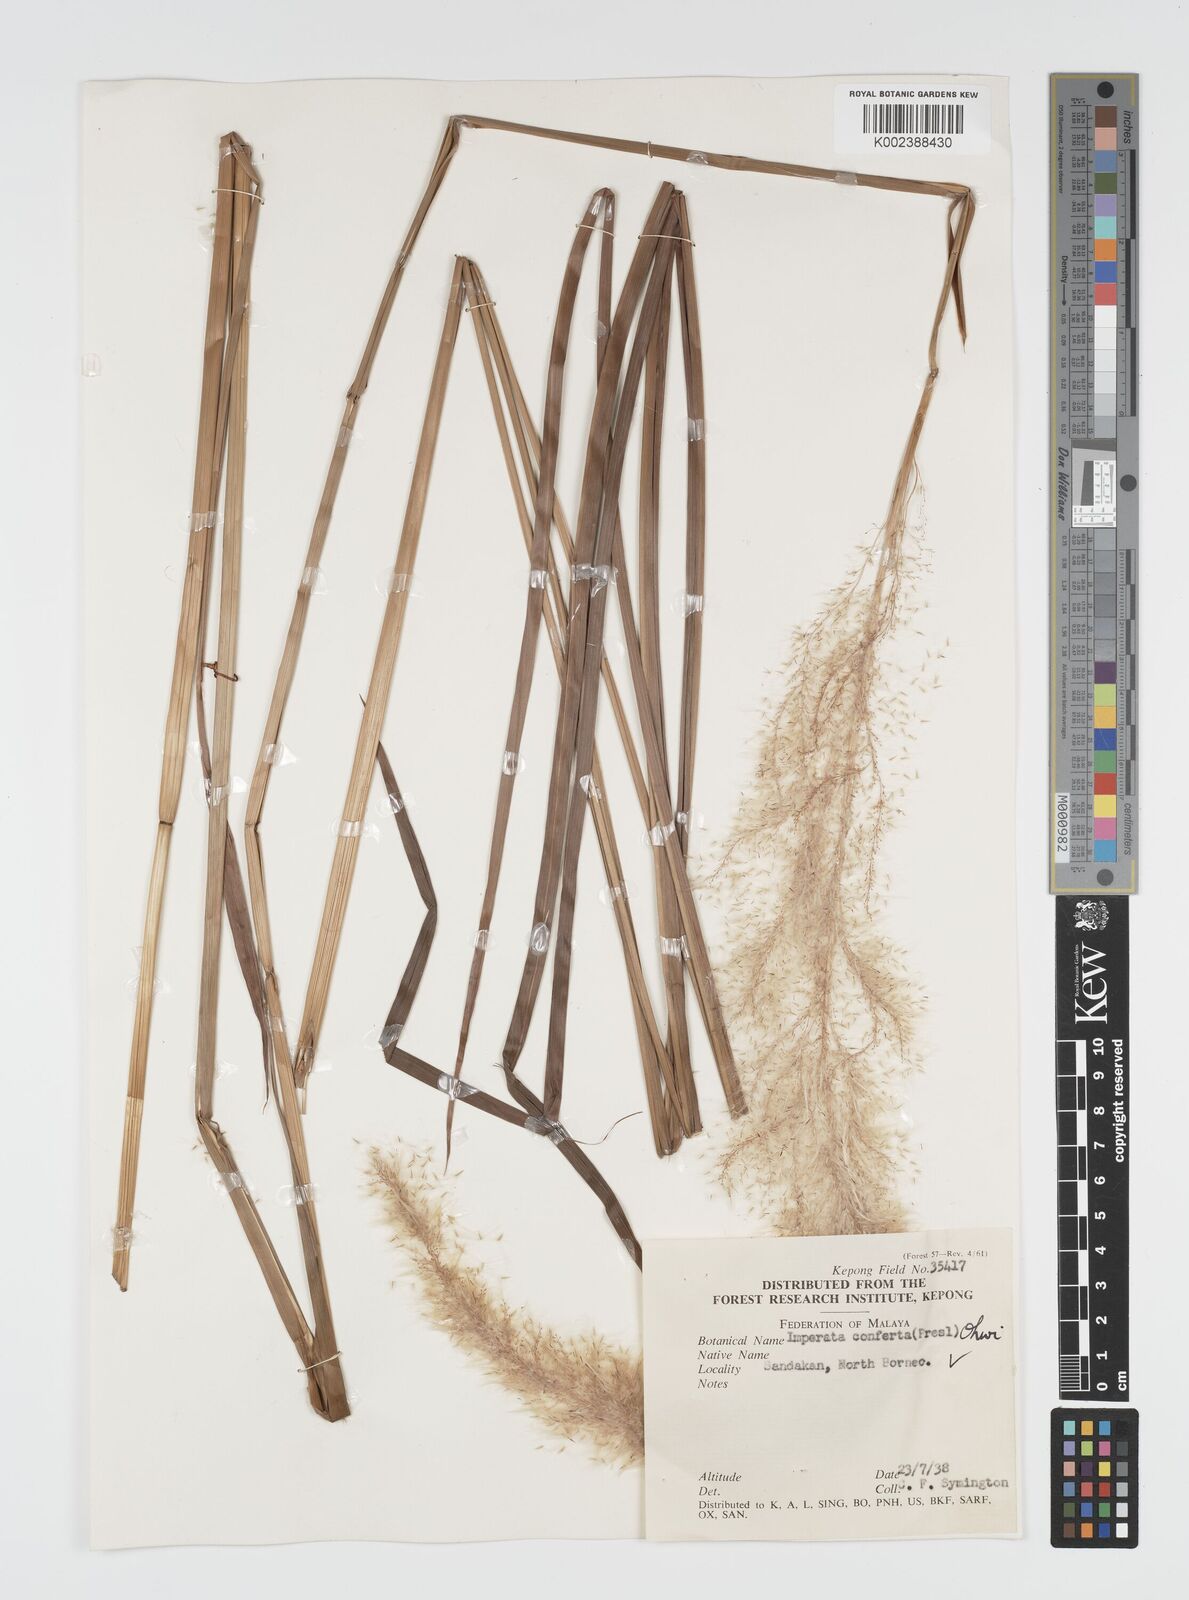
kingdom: Plantae
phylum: Tracheophyta
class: Liliopsida
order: Poales
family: Poaceae
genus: Imperata
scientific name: Imperata conferta
